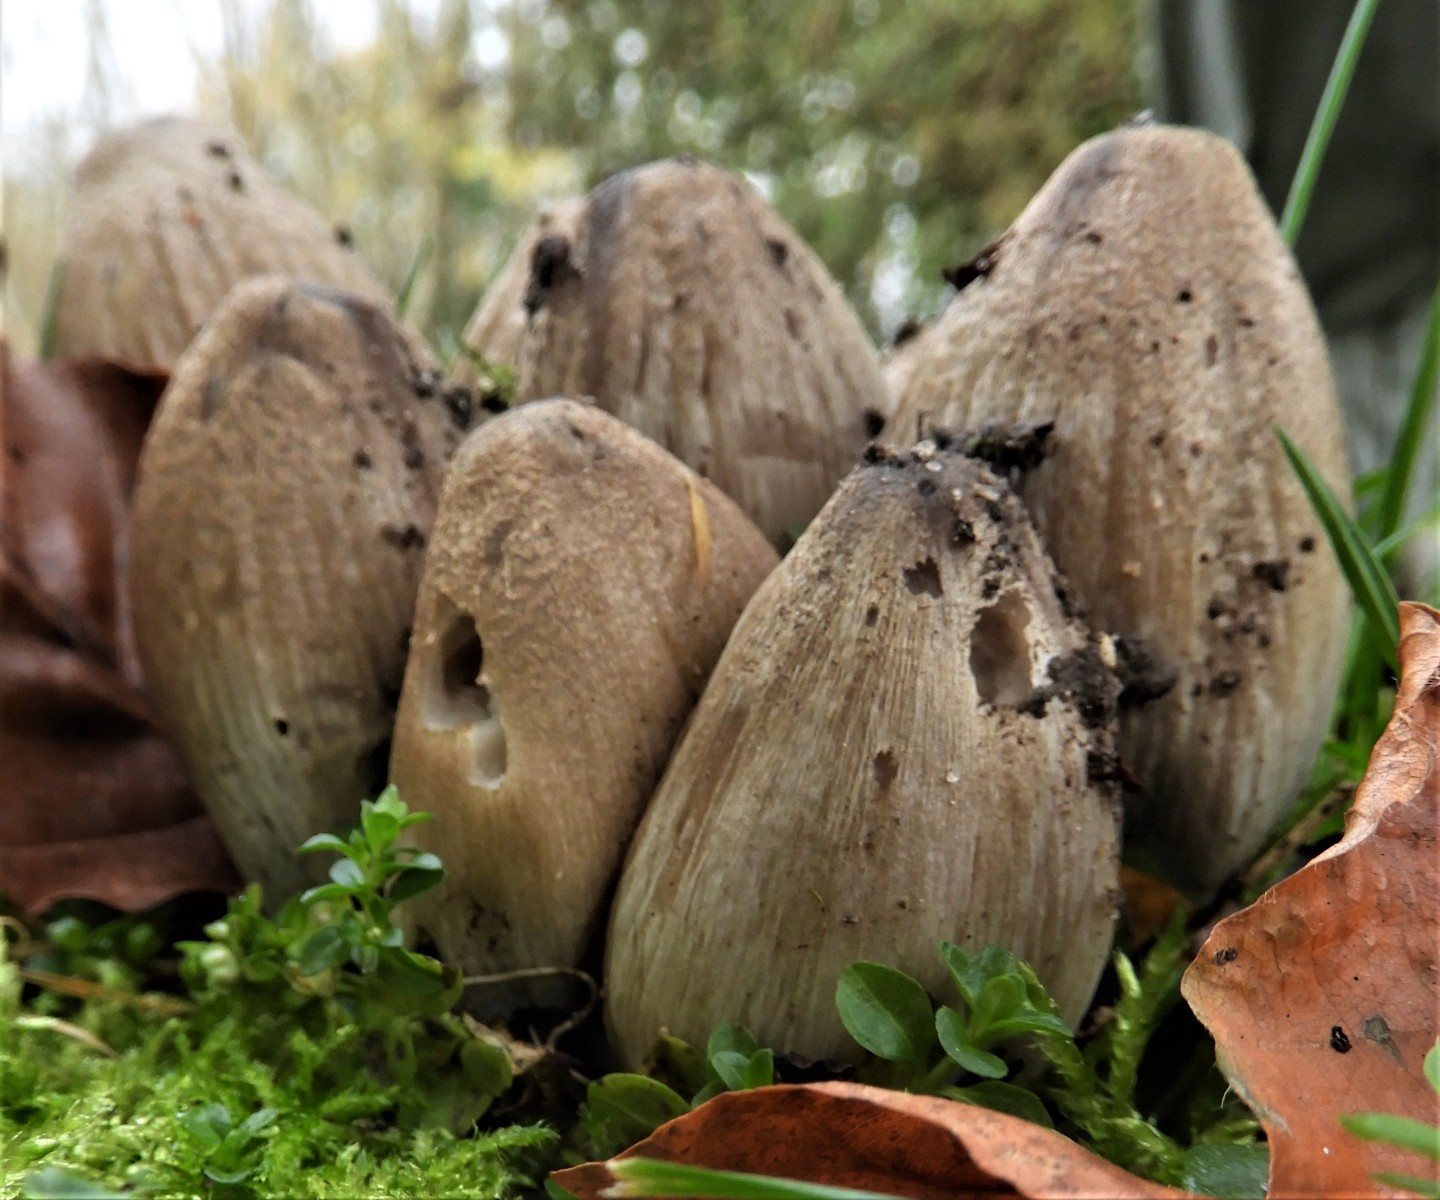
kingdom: Fungi
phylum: Basidiomycota
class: Agaricomycetes
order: Agaricales
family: Psathyrellaceae
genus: Coprinopsis
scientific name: Coprinopsis atramentaria
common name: almindelig blækhat
